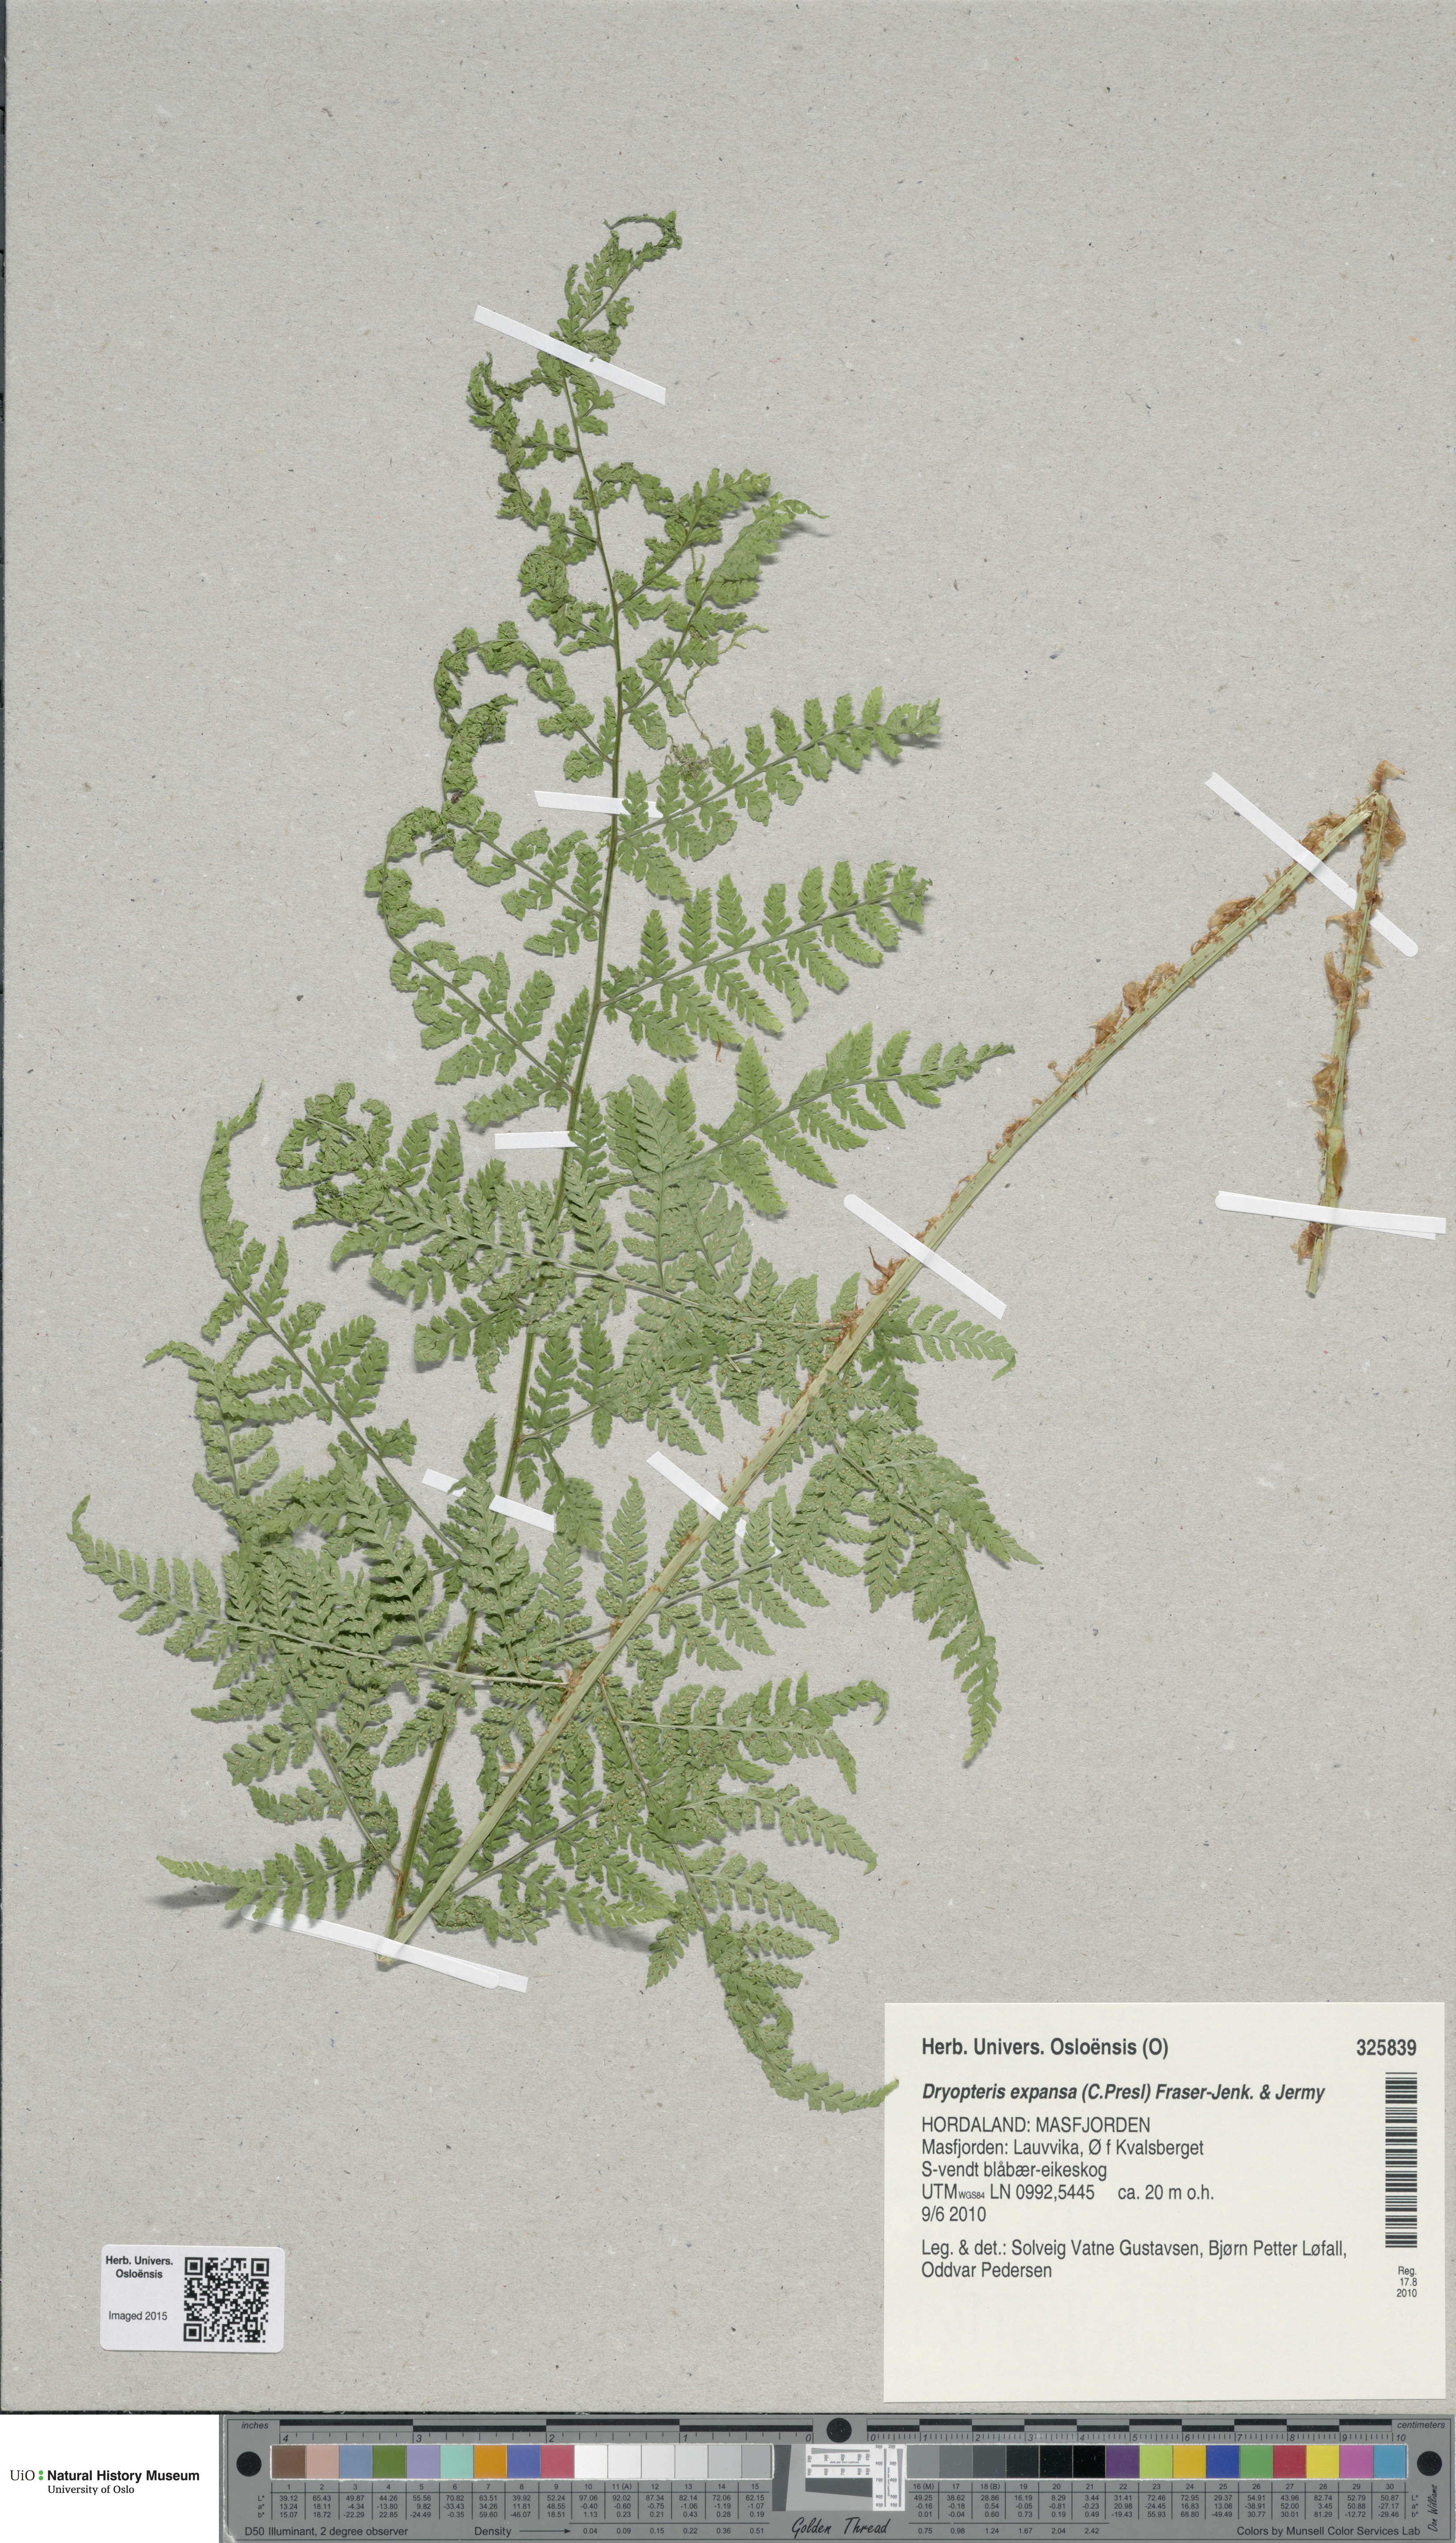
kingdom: Plantae
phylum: Tracheophyta
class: Polypodiopsida
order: Polypodiales
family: Dryopteridaceae
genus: Dryopteris
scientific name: Dryopteris expansa
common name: Northern buckler fern
